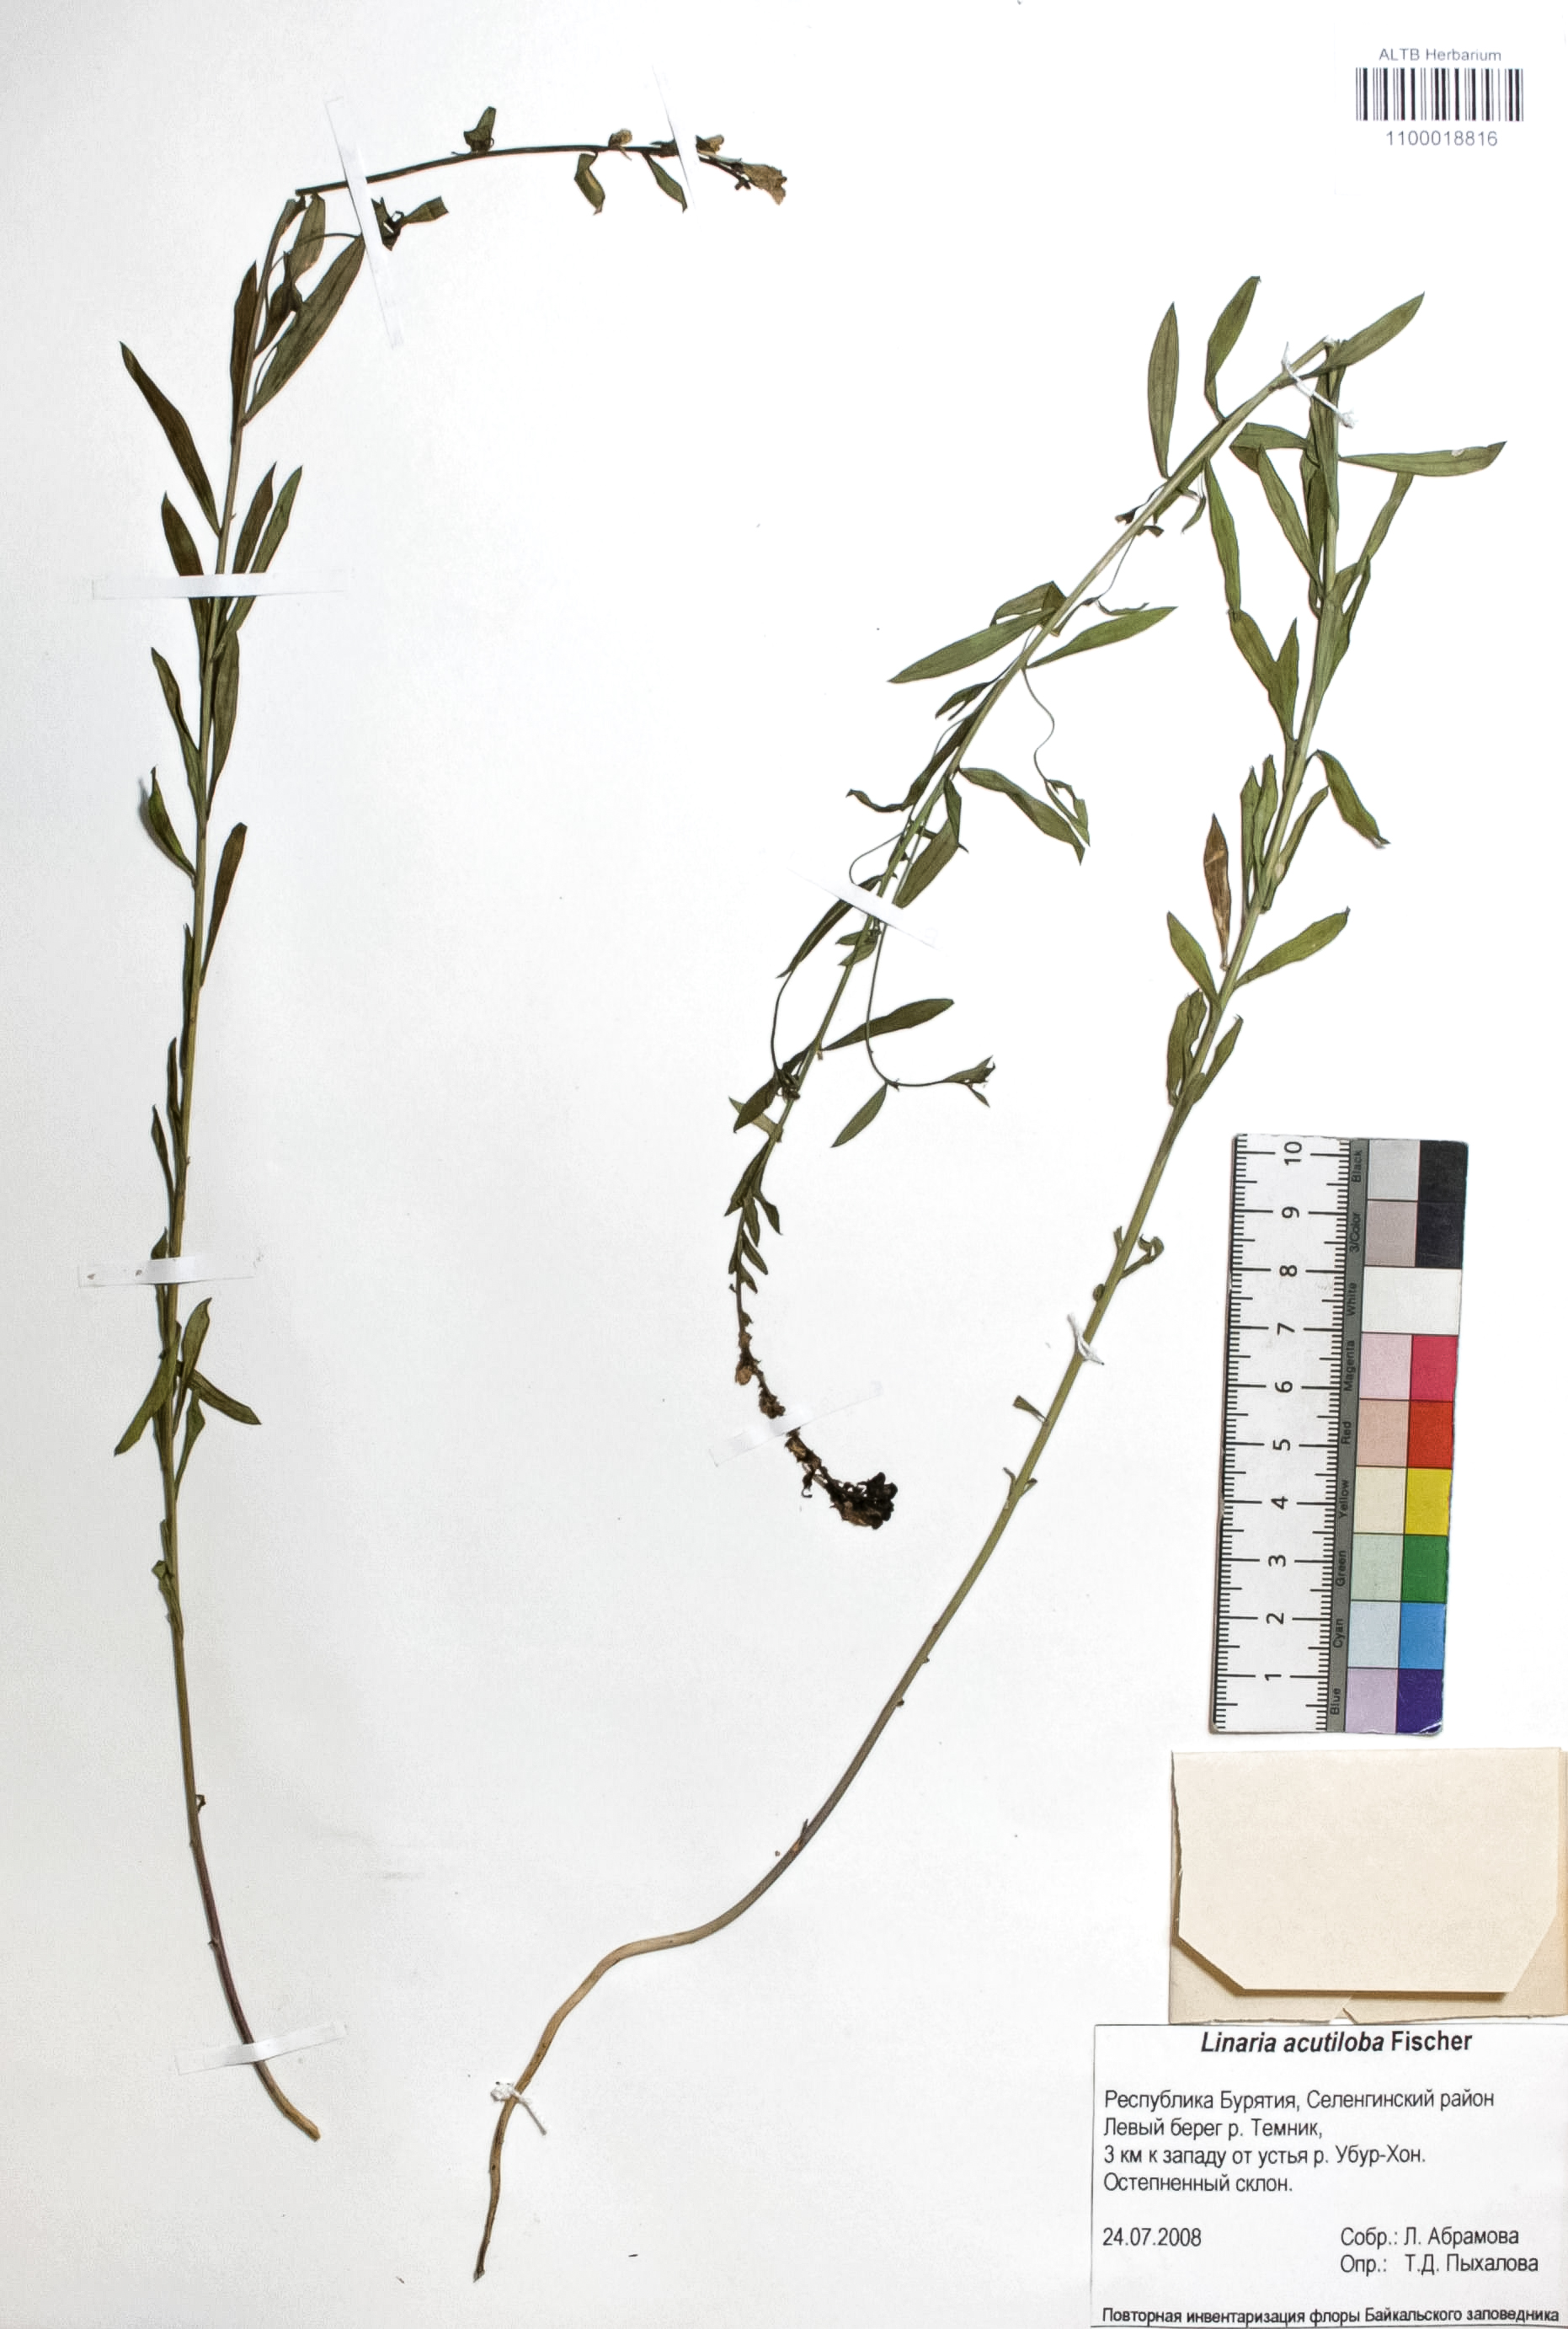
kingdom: Plantae
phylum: Tracheophyta
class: Magnoliopsida
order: Lamiales
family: Plantaginaceae
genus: Linaria
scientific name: Linaria acutiloba
